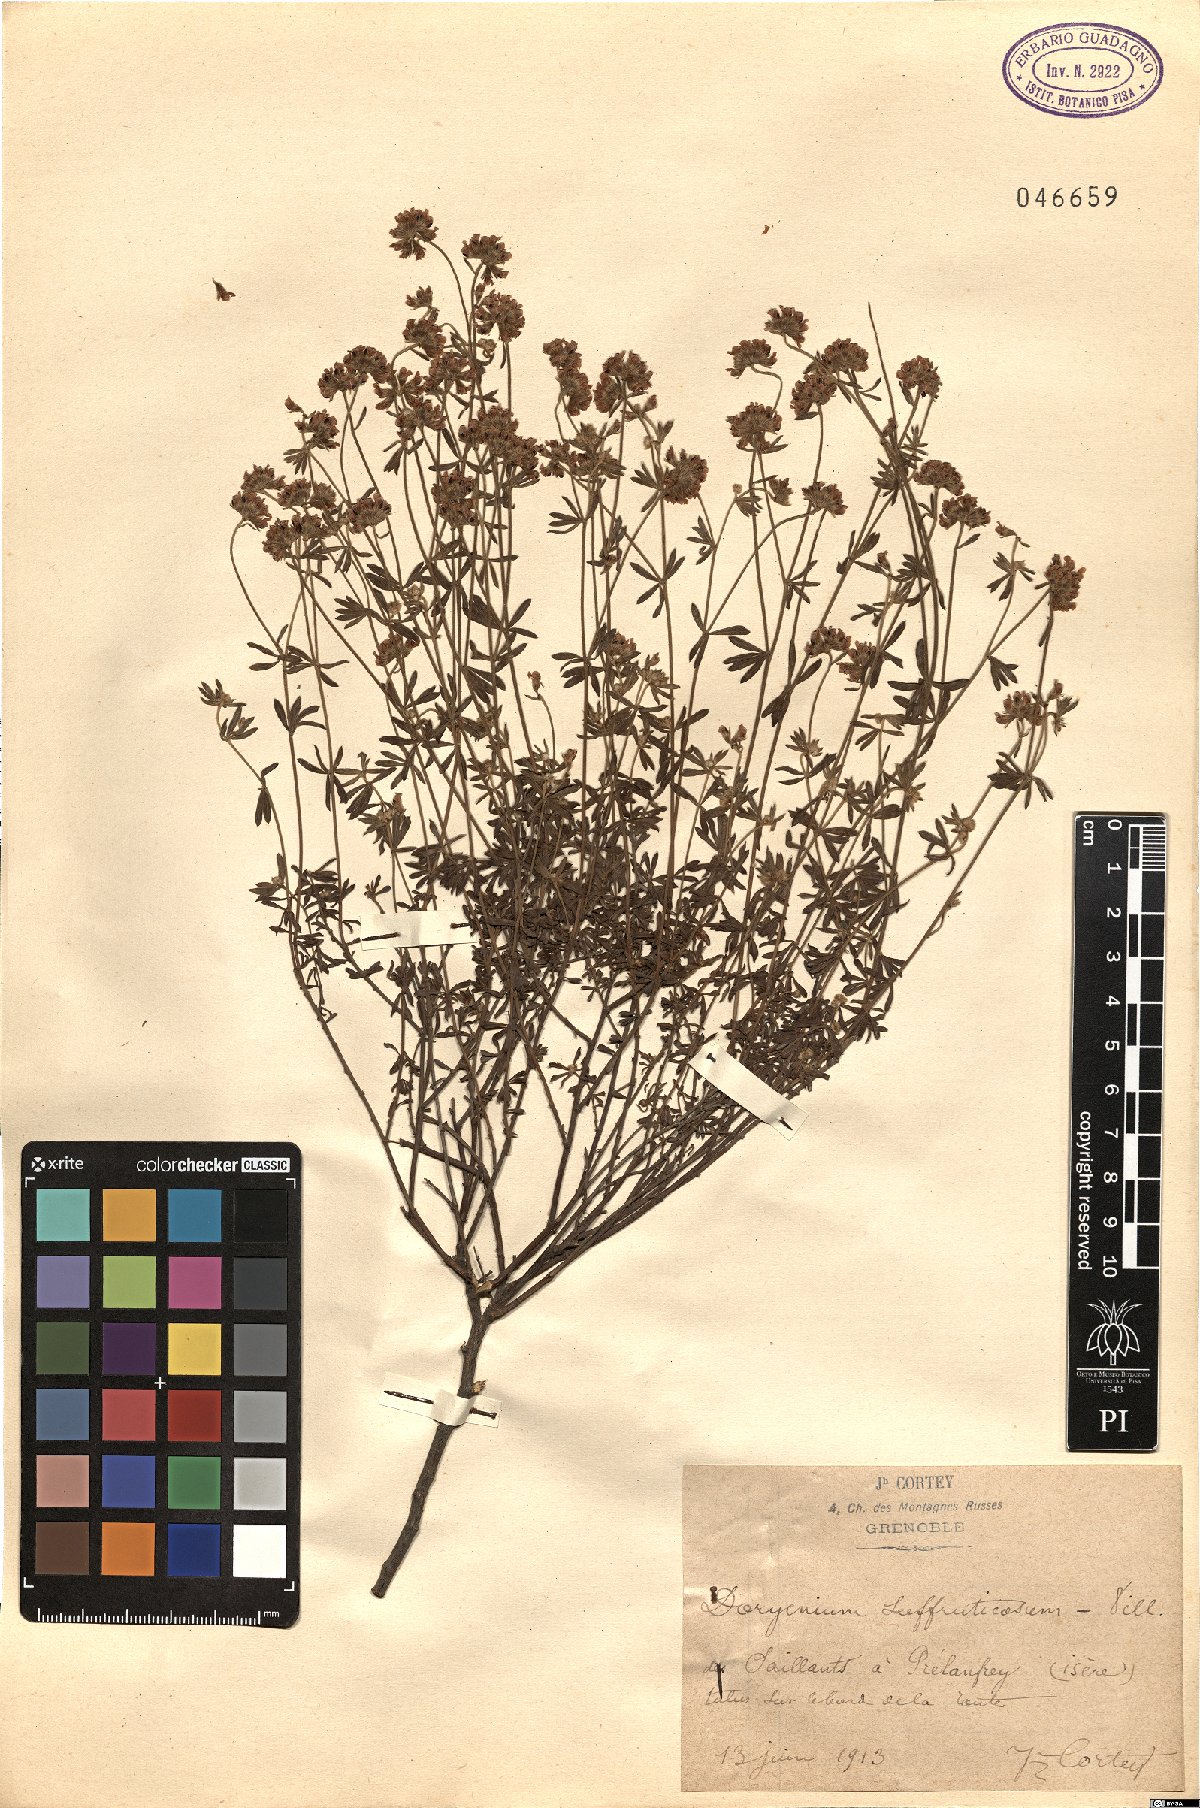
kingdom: Plantae
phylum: Tracheophyta
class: Magnoliopsida
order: Fabales
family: Fabaceae
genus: Lotus
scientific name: Lotus dorycnium
